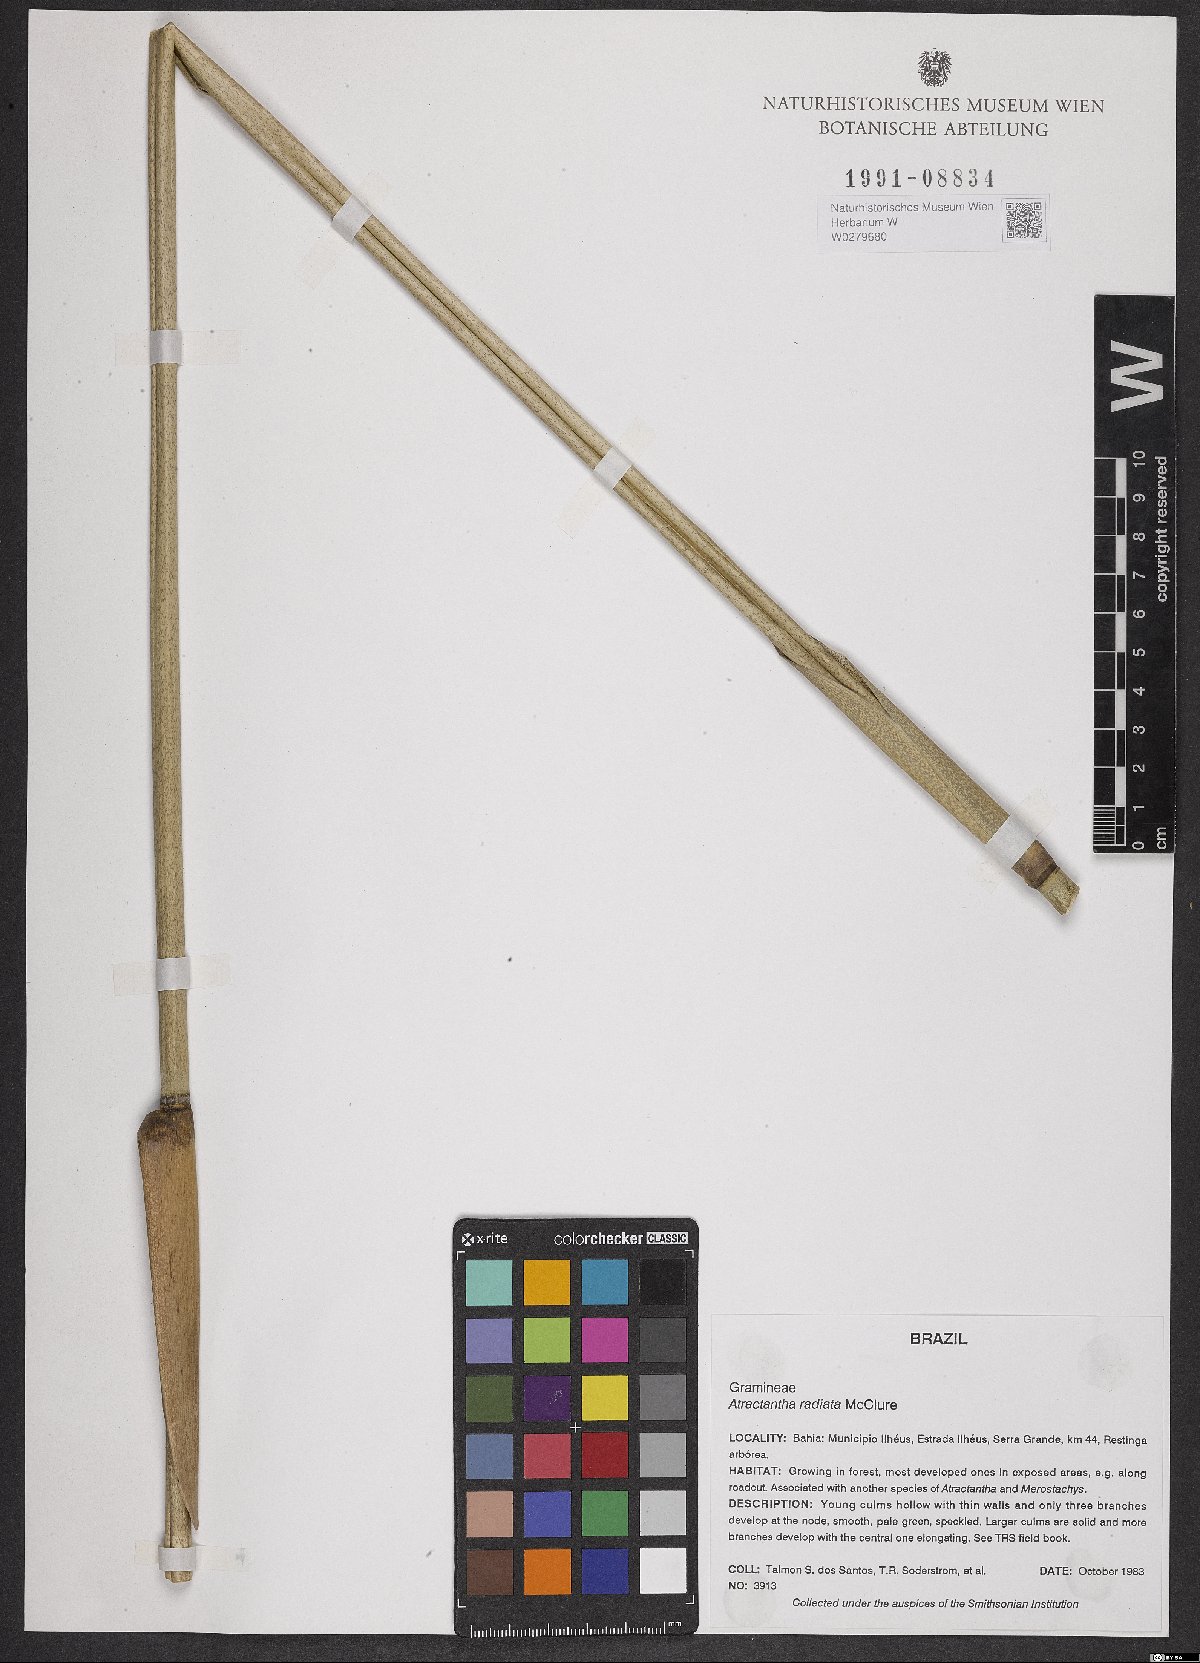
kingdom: Plantae
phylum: Tracheophyta
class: Liliopsida
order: Poales
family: Poaceae
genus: Atractantha
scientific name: Atractantha radiata
